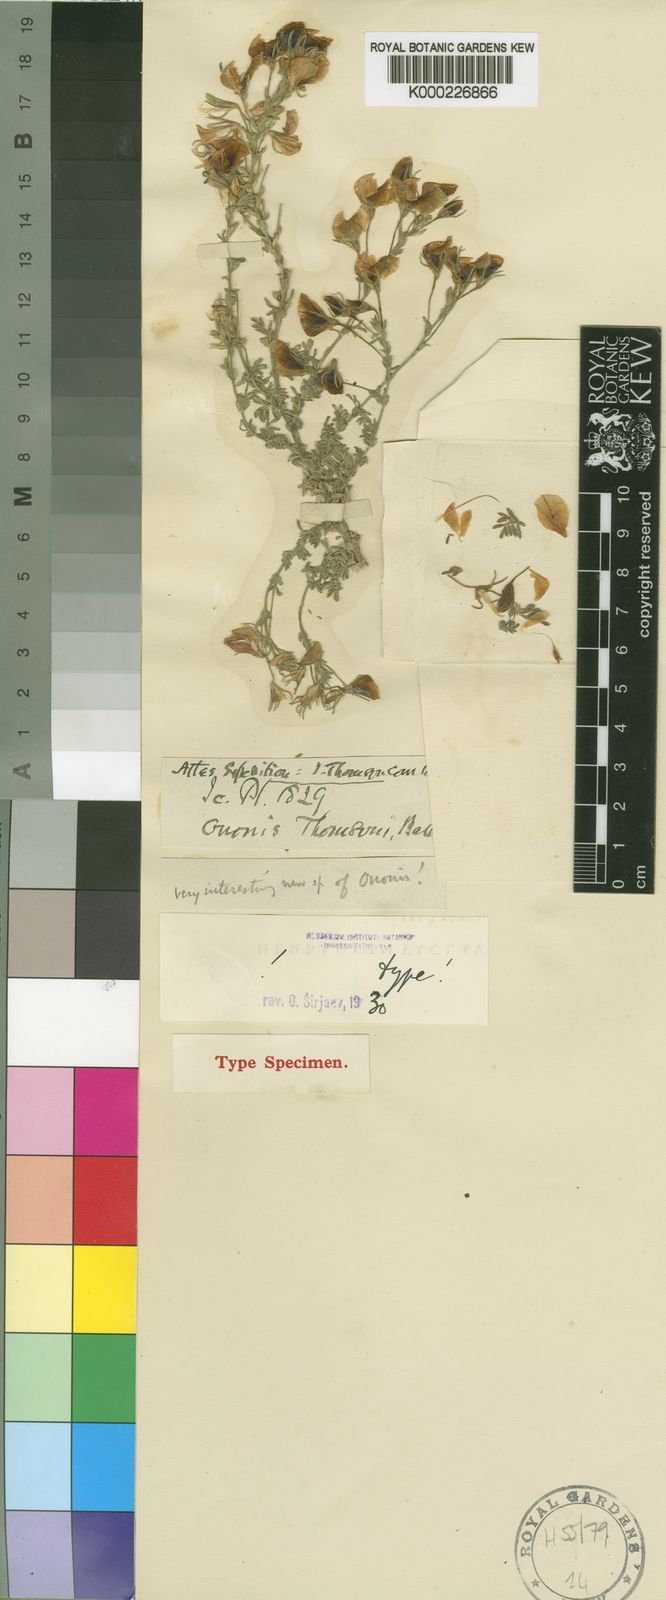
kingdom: Plantae
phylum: Tracheophyta
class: Magnoliopsida
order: Fabales
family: Fabaceae
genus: Ononis
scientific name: Ononis
